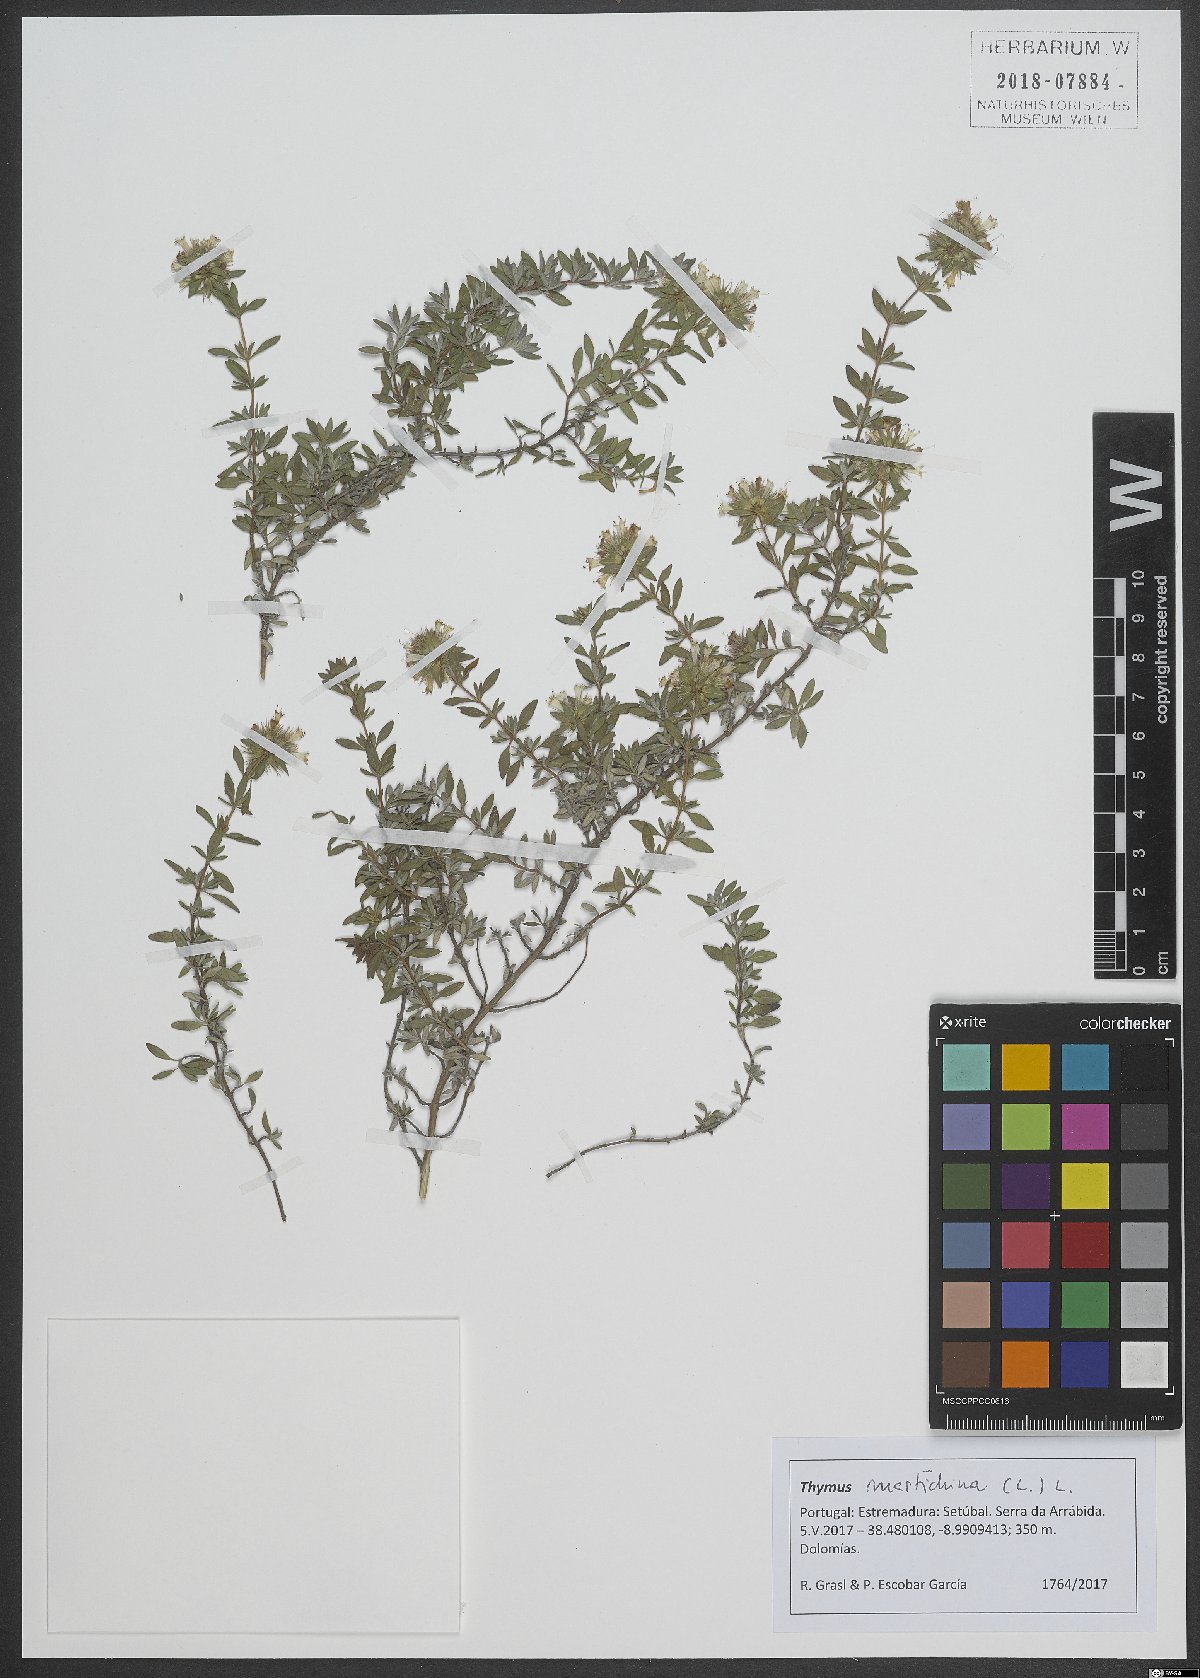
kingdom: Plantae
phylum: Tracheophyta
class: Magnoliopsida
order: Lamiales
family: Lamiaceae
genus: Thymus
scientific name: Thymus mastichina
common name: Mastic thyme
